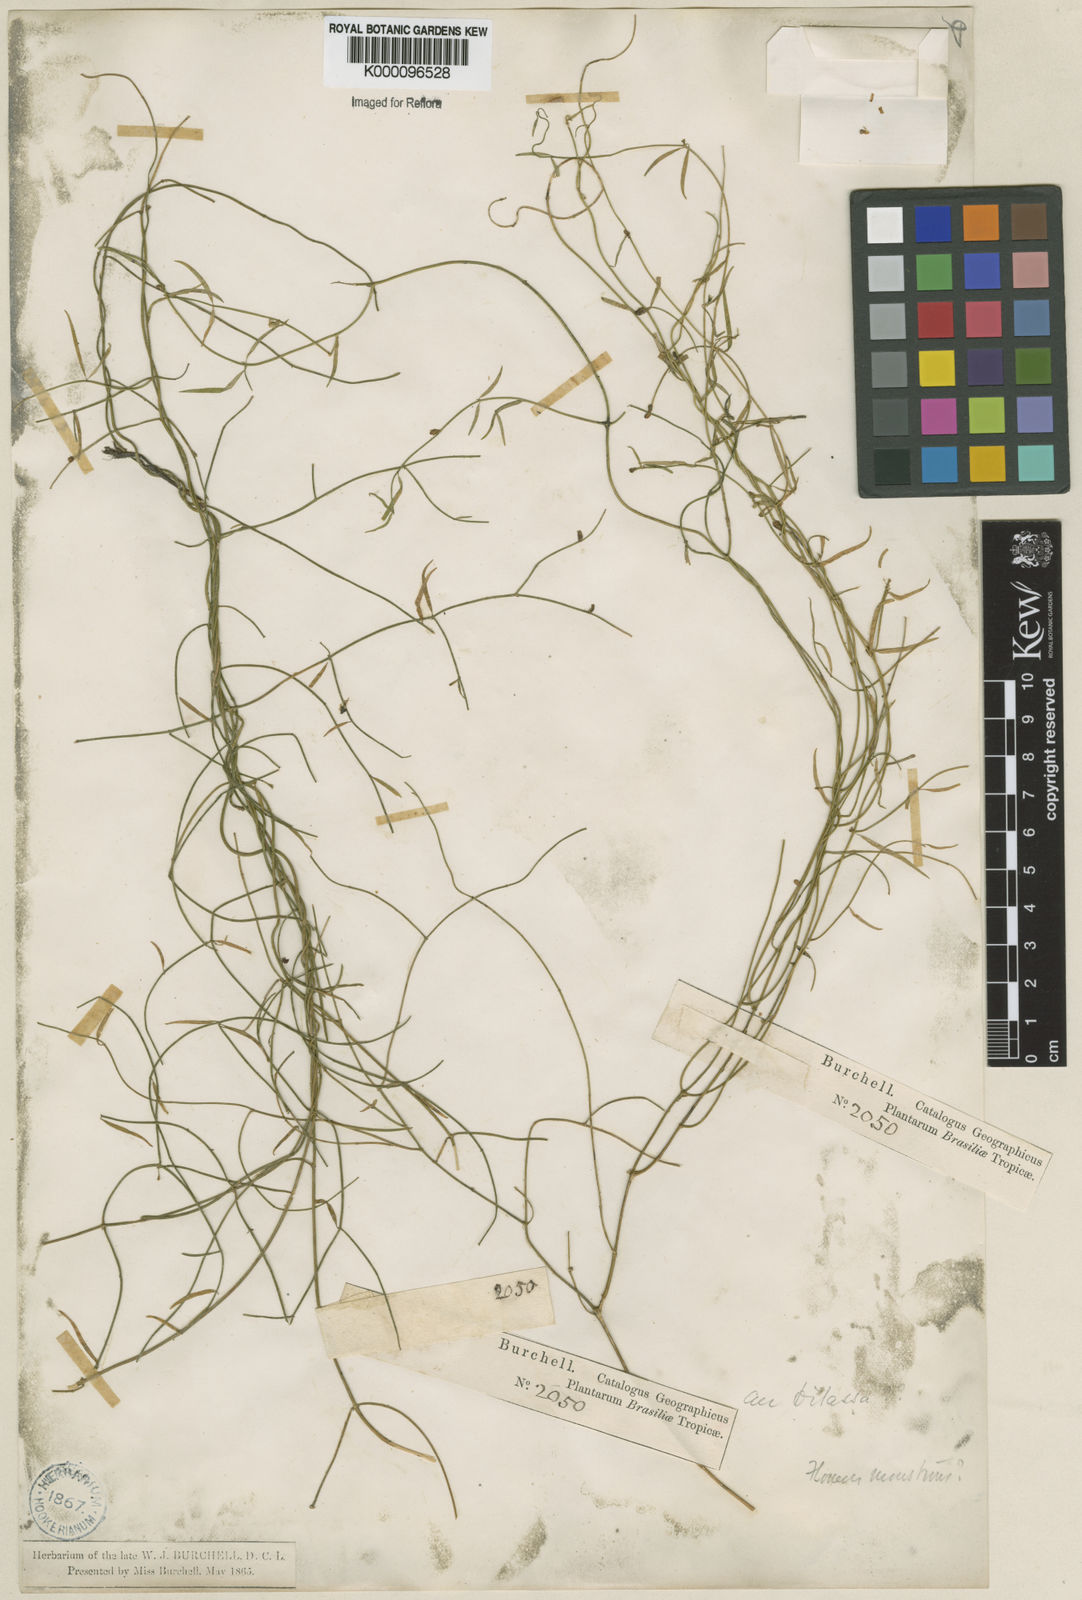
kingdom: Plantae
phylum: Tracheophyta
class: Magnoliopsida
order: Gentianales
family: Apocynaceae
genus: Orthosia
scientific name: Orthosia scoparia
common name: Leafless swallow-wort
